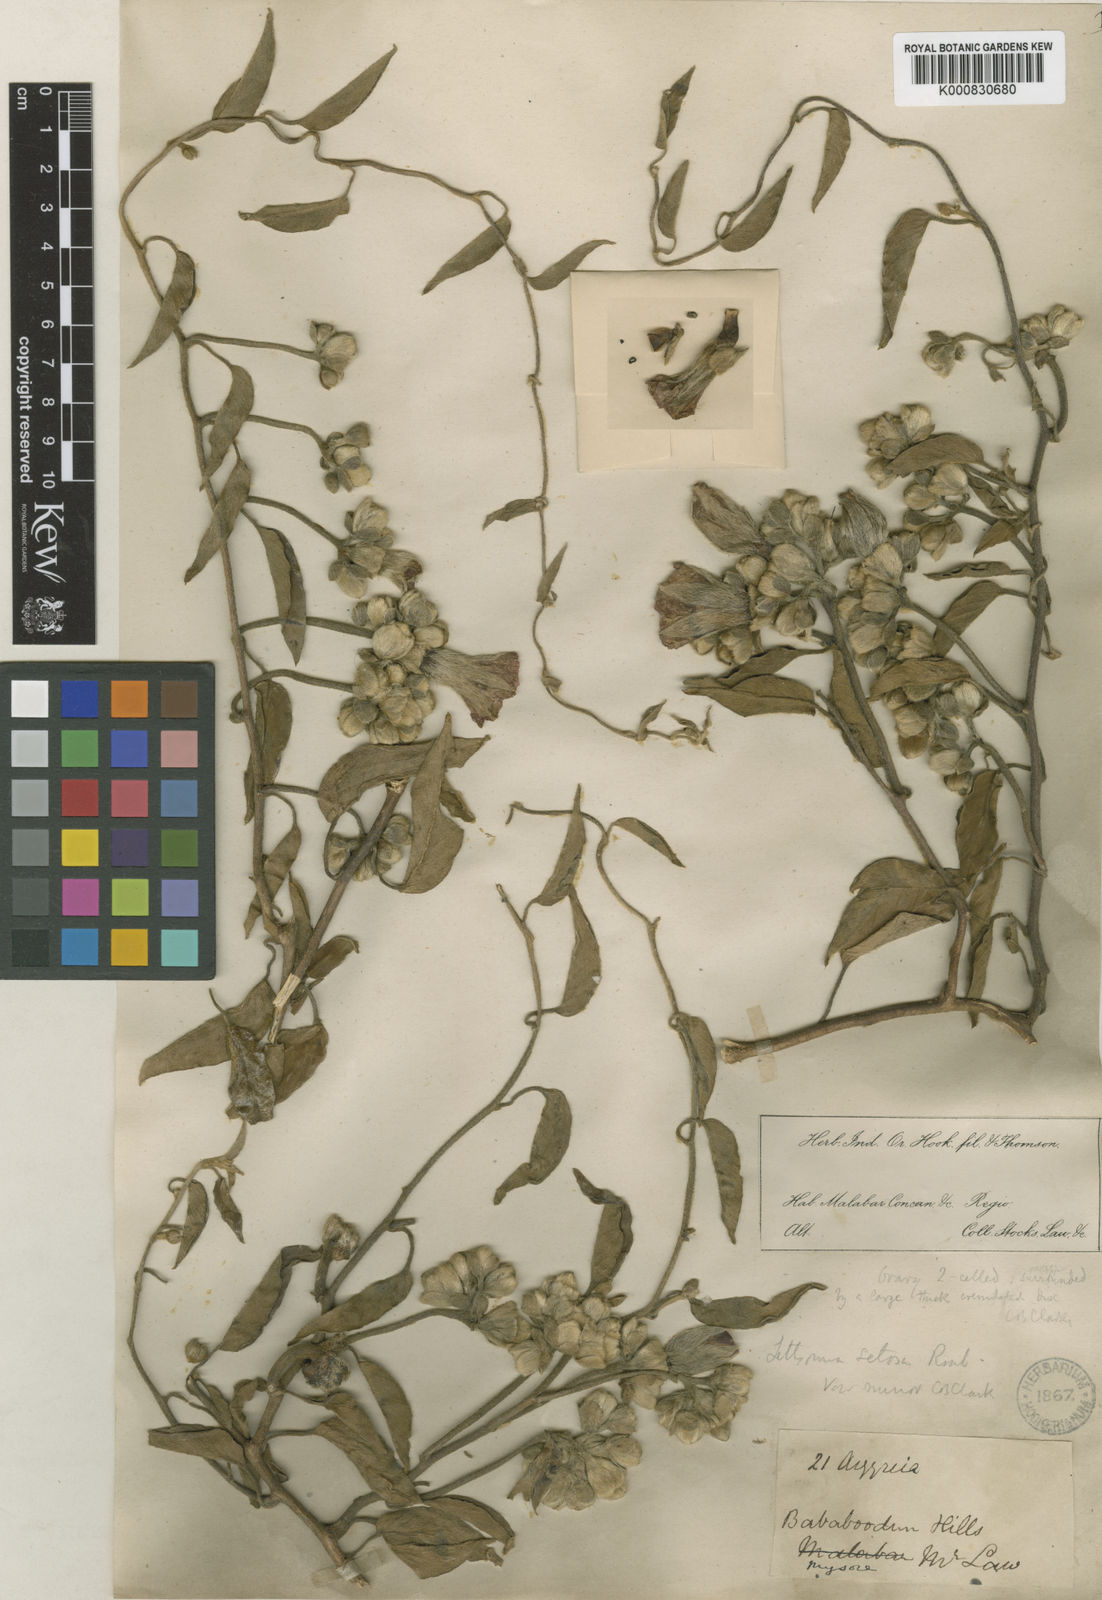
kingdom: Plantae
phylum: Tracheophyta
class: Magnoliopsida
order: Solanales
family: Convolvulaceae
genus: Argyreia
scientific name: Argyreia setosa
